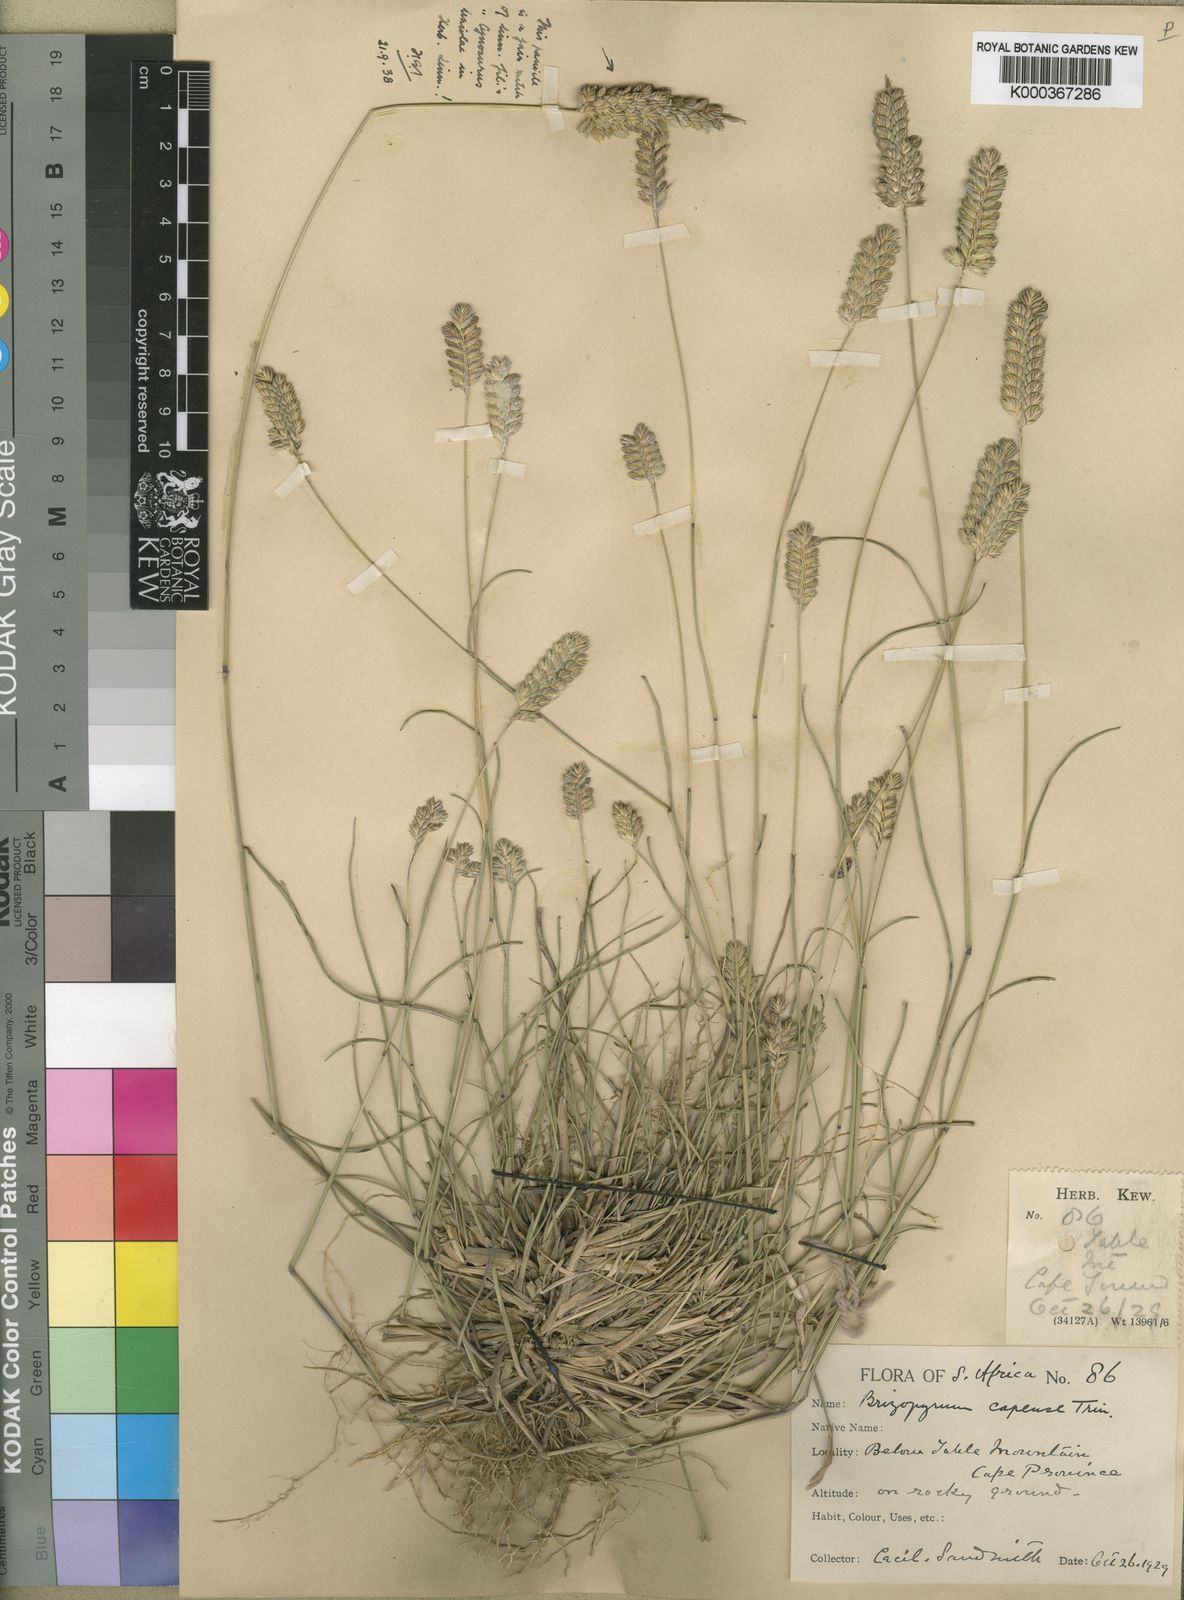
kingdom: Plantae
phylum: Tracheophyta
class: Liliopsida
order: Poales
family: Poaceae
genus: Tribolium
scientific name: Tribolium uniolae
